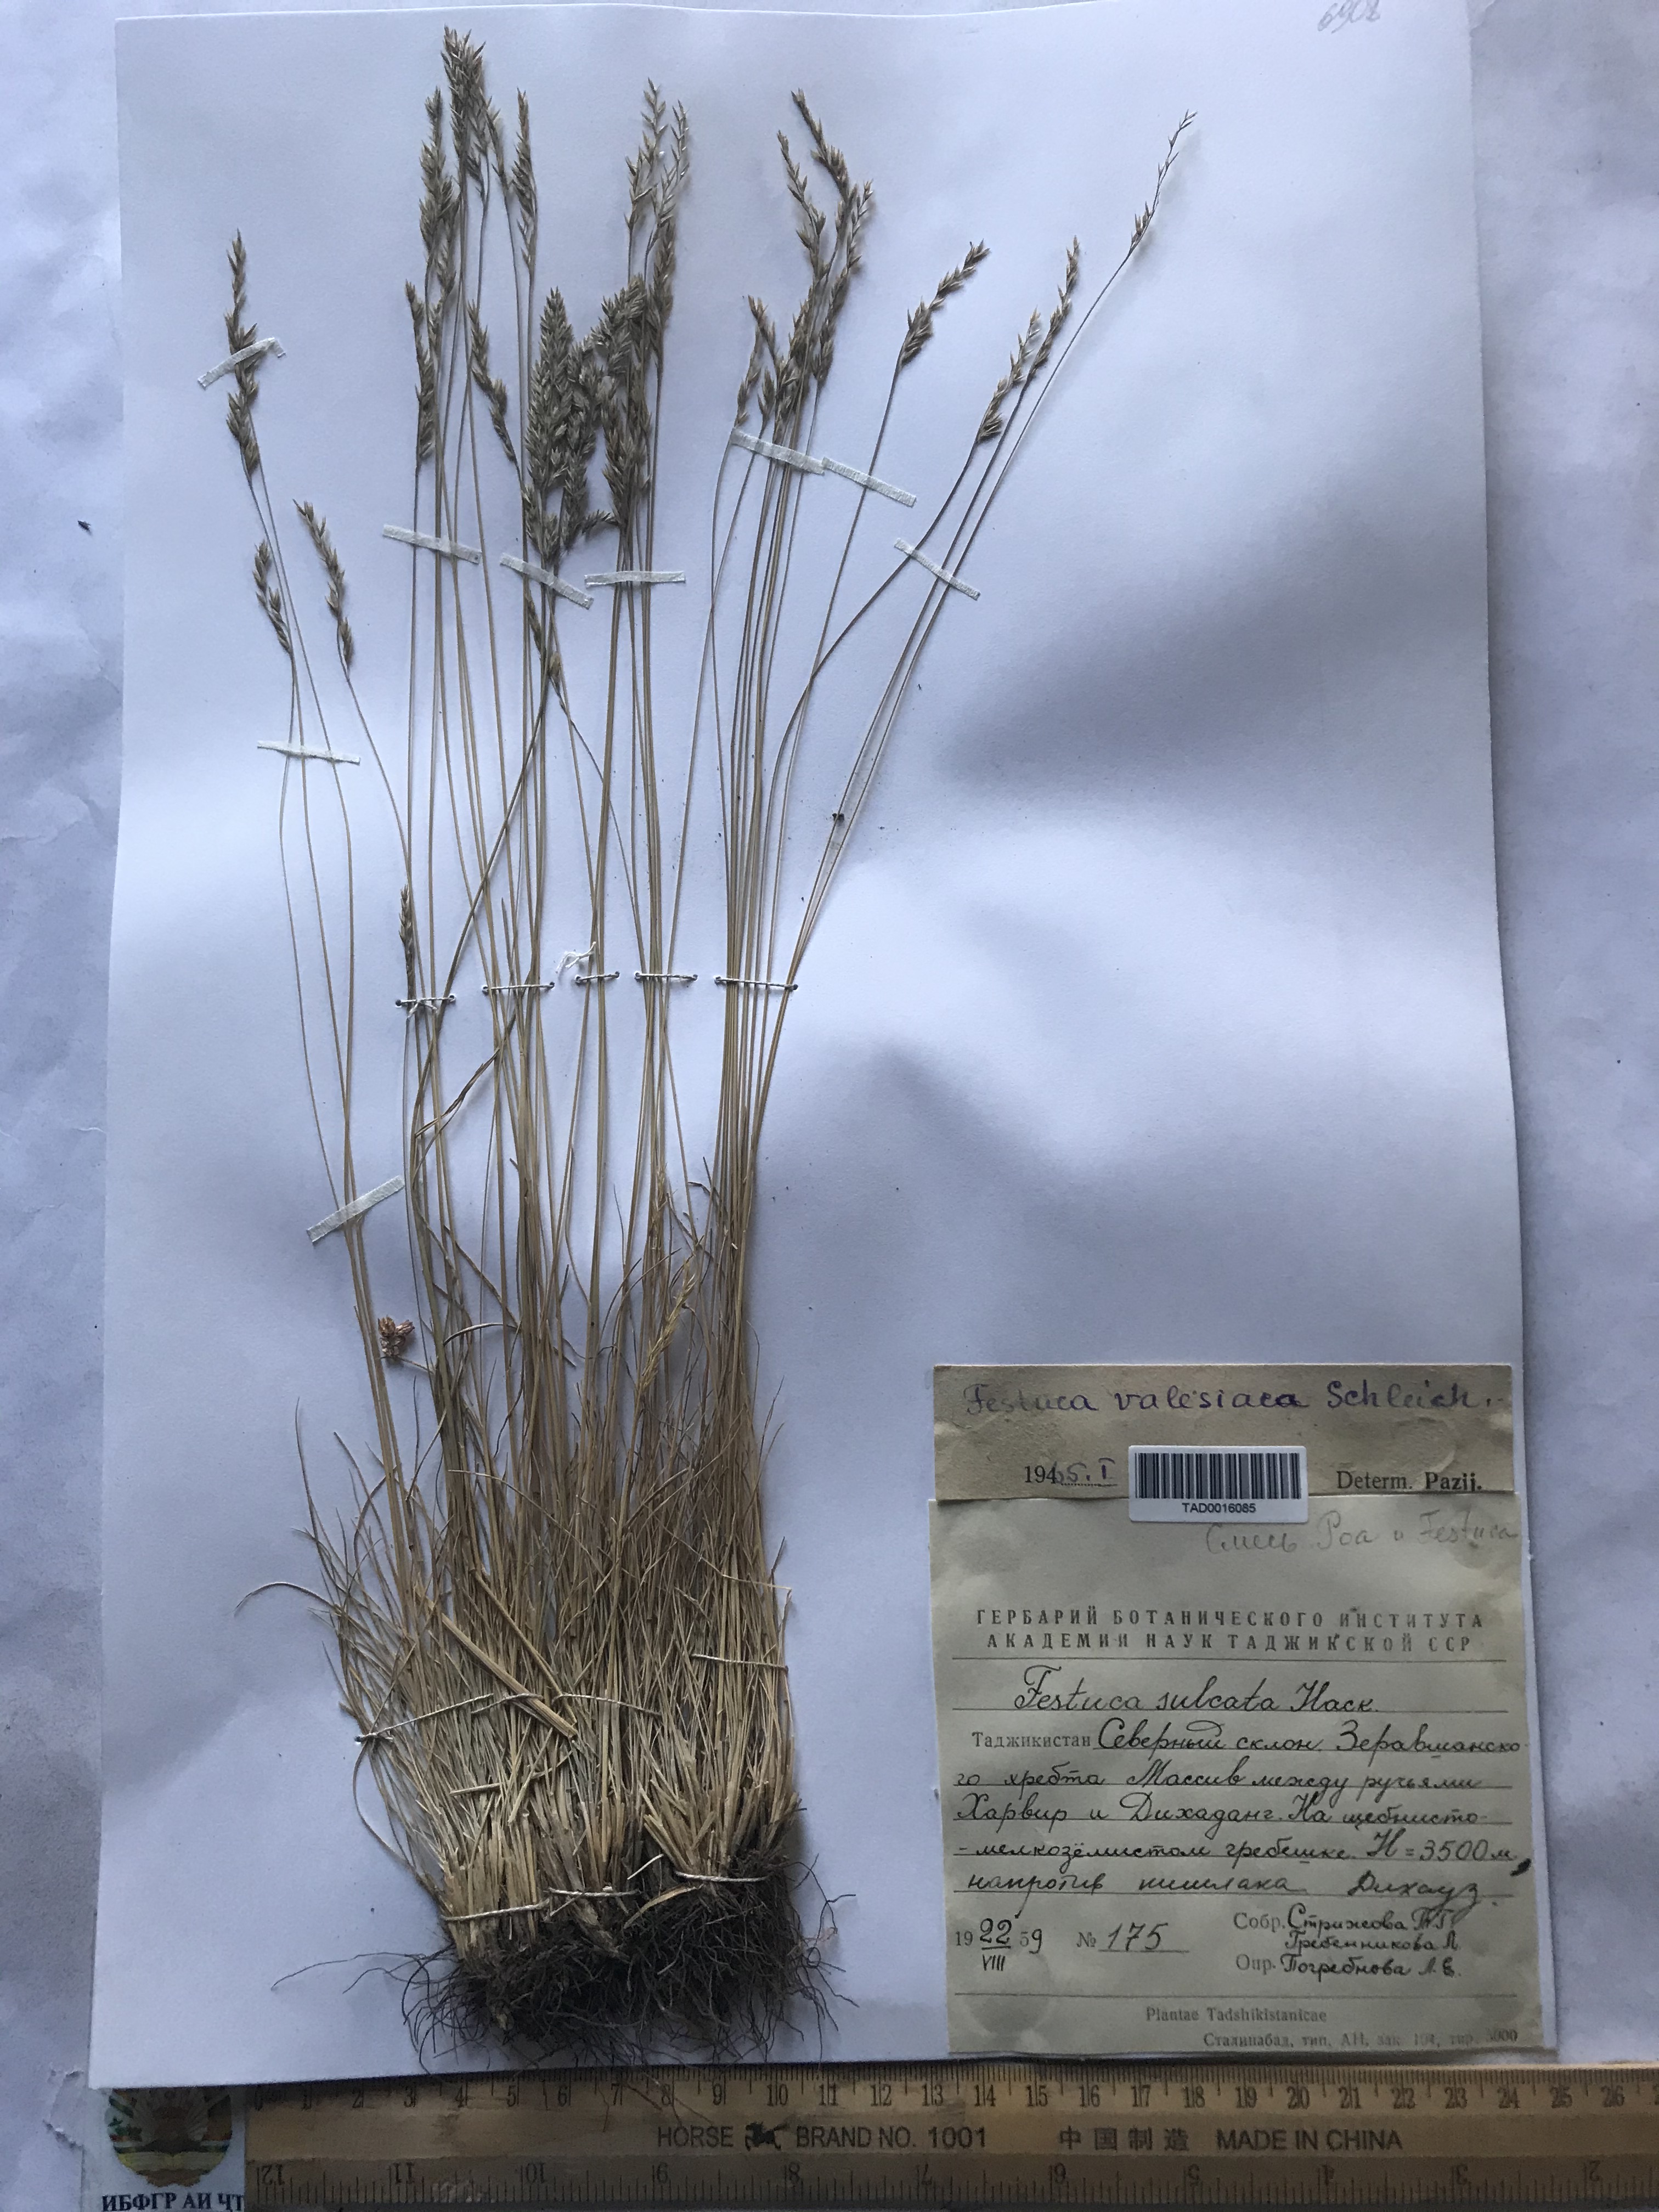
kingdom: Plantae
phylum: Tracheophyta
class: Liliopsida
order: Poales
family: Poaceae
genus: Festuca
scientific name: Festuca valesiaca
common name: Volga fescue
